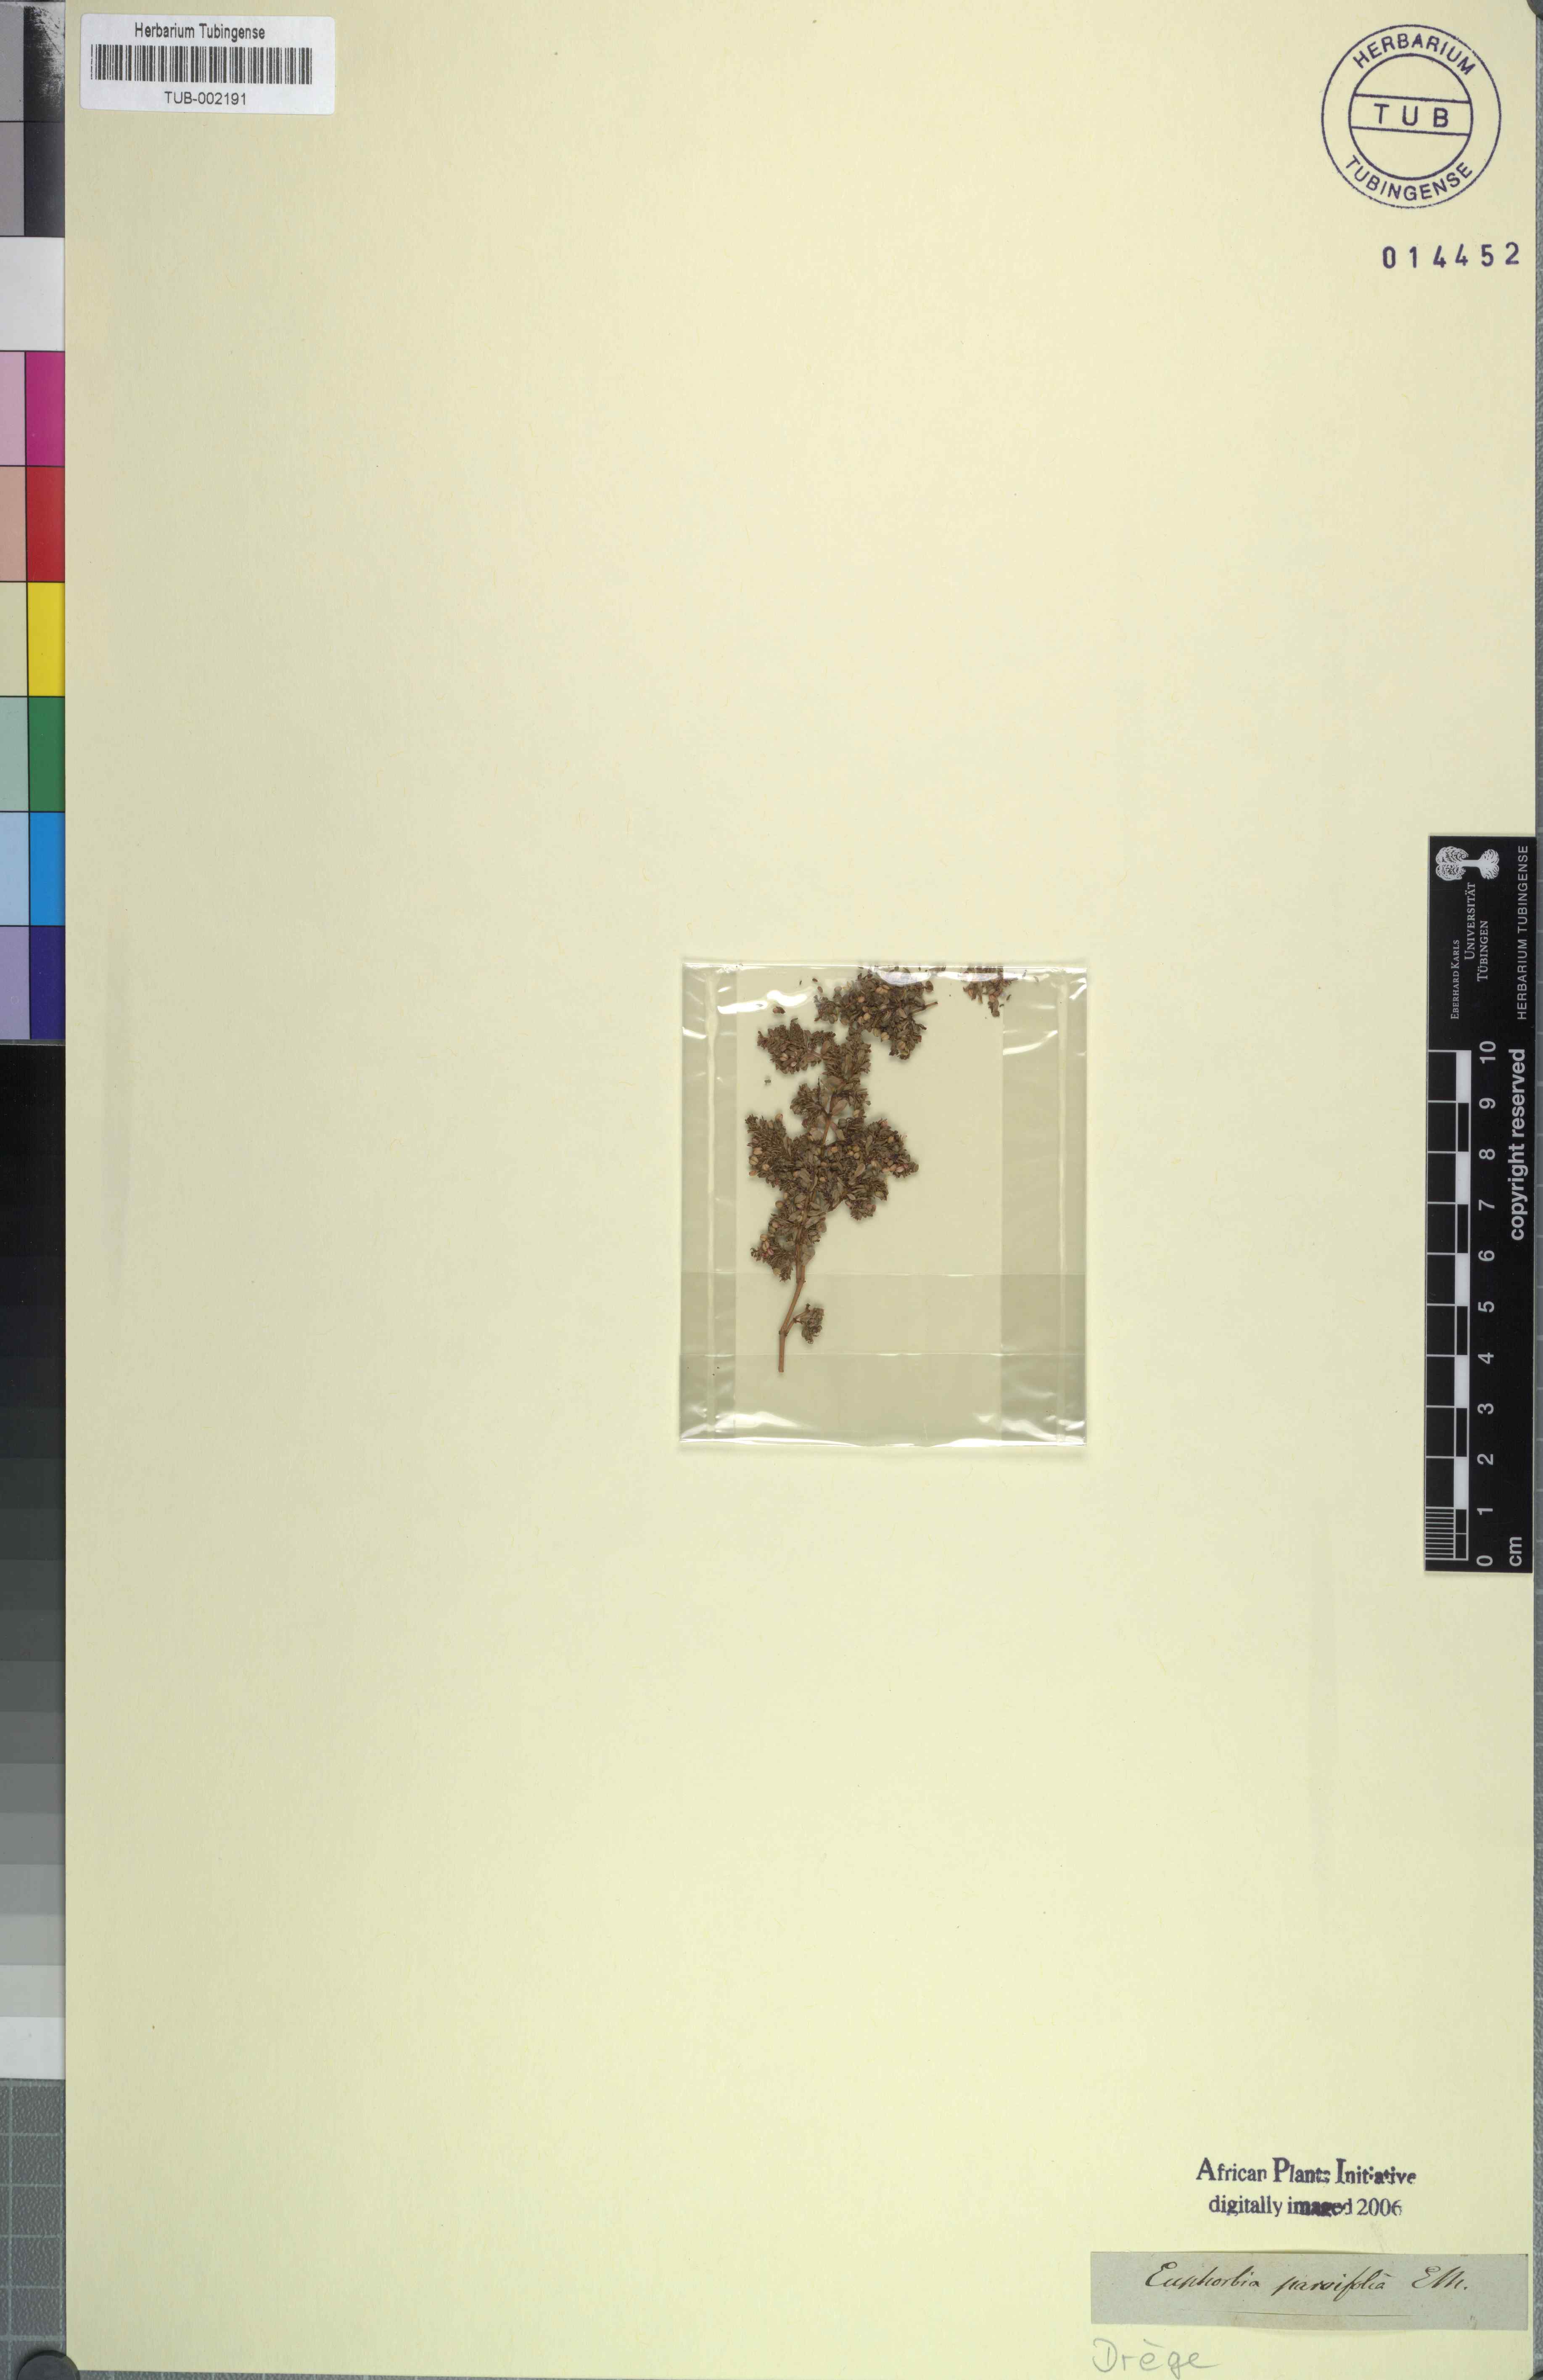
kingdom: Plantae
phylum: Tracheophyta
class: Magnoliopsida
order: Malpighiales
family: Euphorbiaceae
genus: Euphorbia
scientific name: Euphorbia inaequilatera
